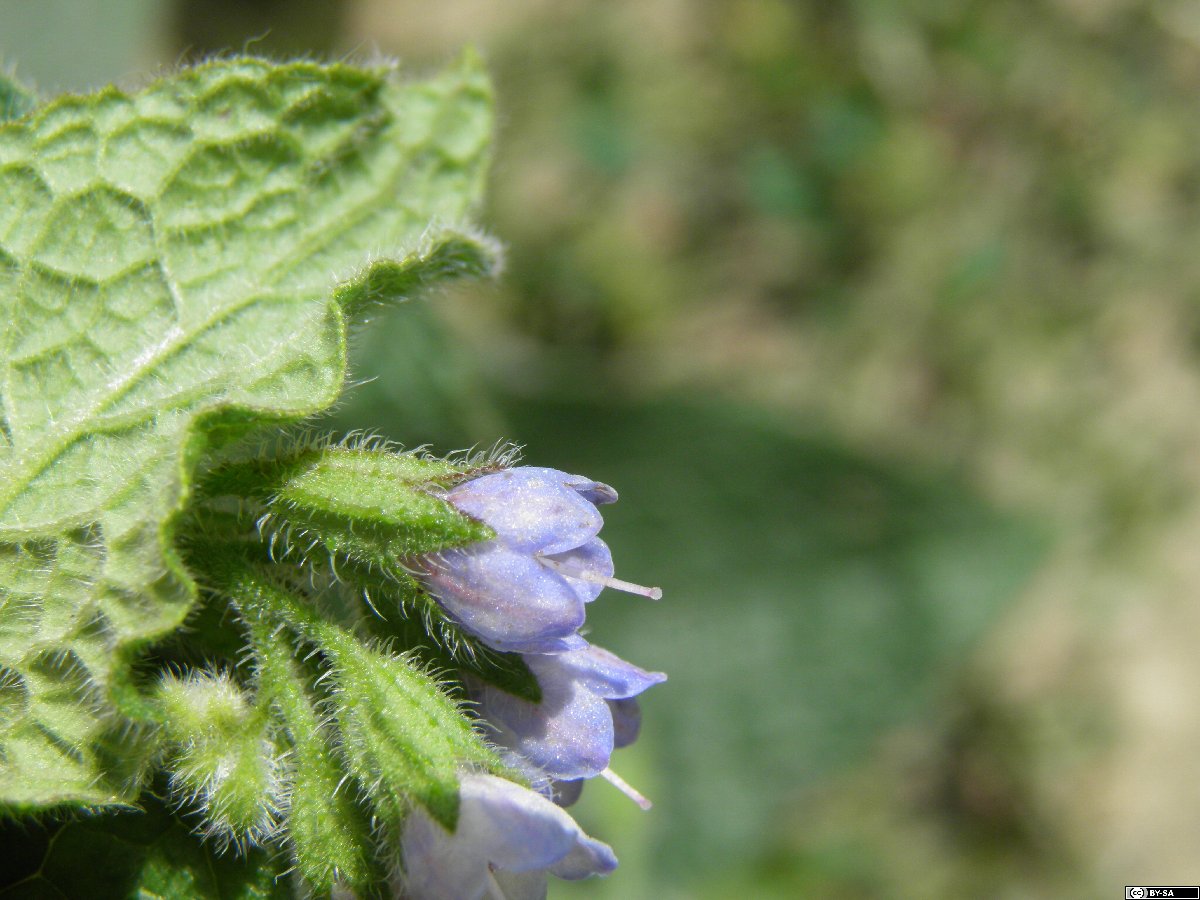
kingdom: Plantae
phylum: Tracheophyta
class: Magnoliopsida
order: Boraginales
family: Boraginaceae
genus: Symphytum
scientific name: Symphytum caucasicum
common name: Caucasian comfrey
